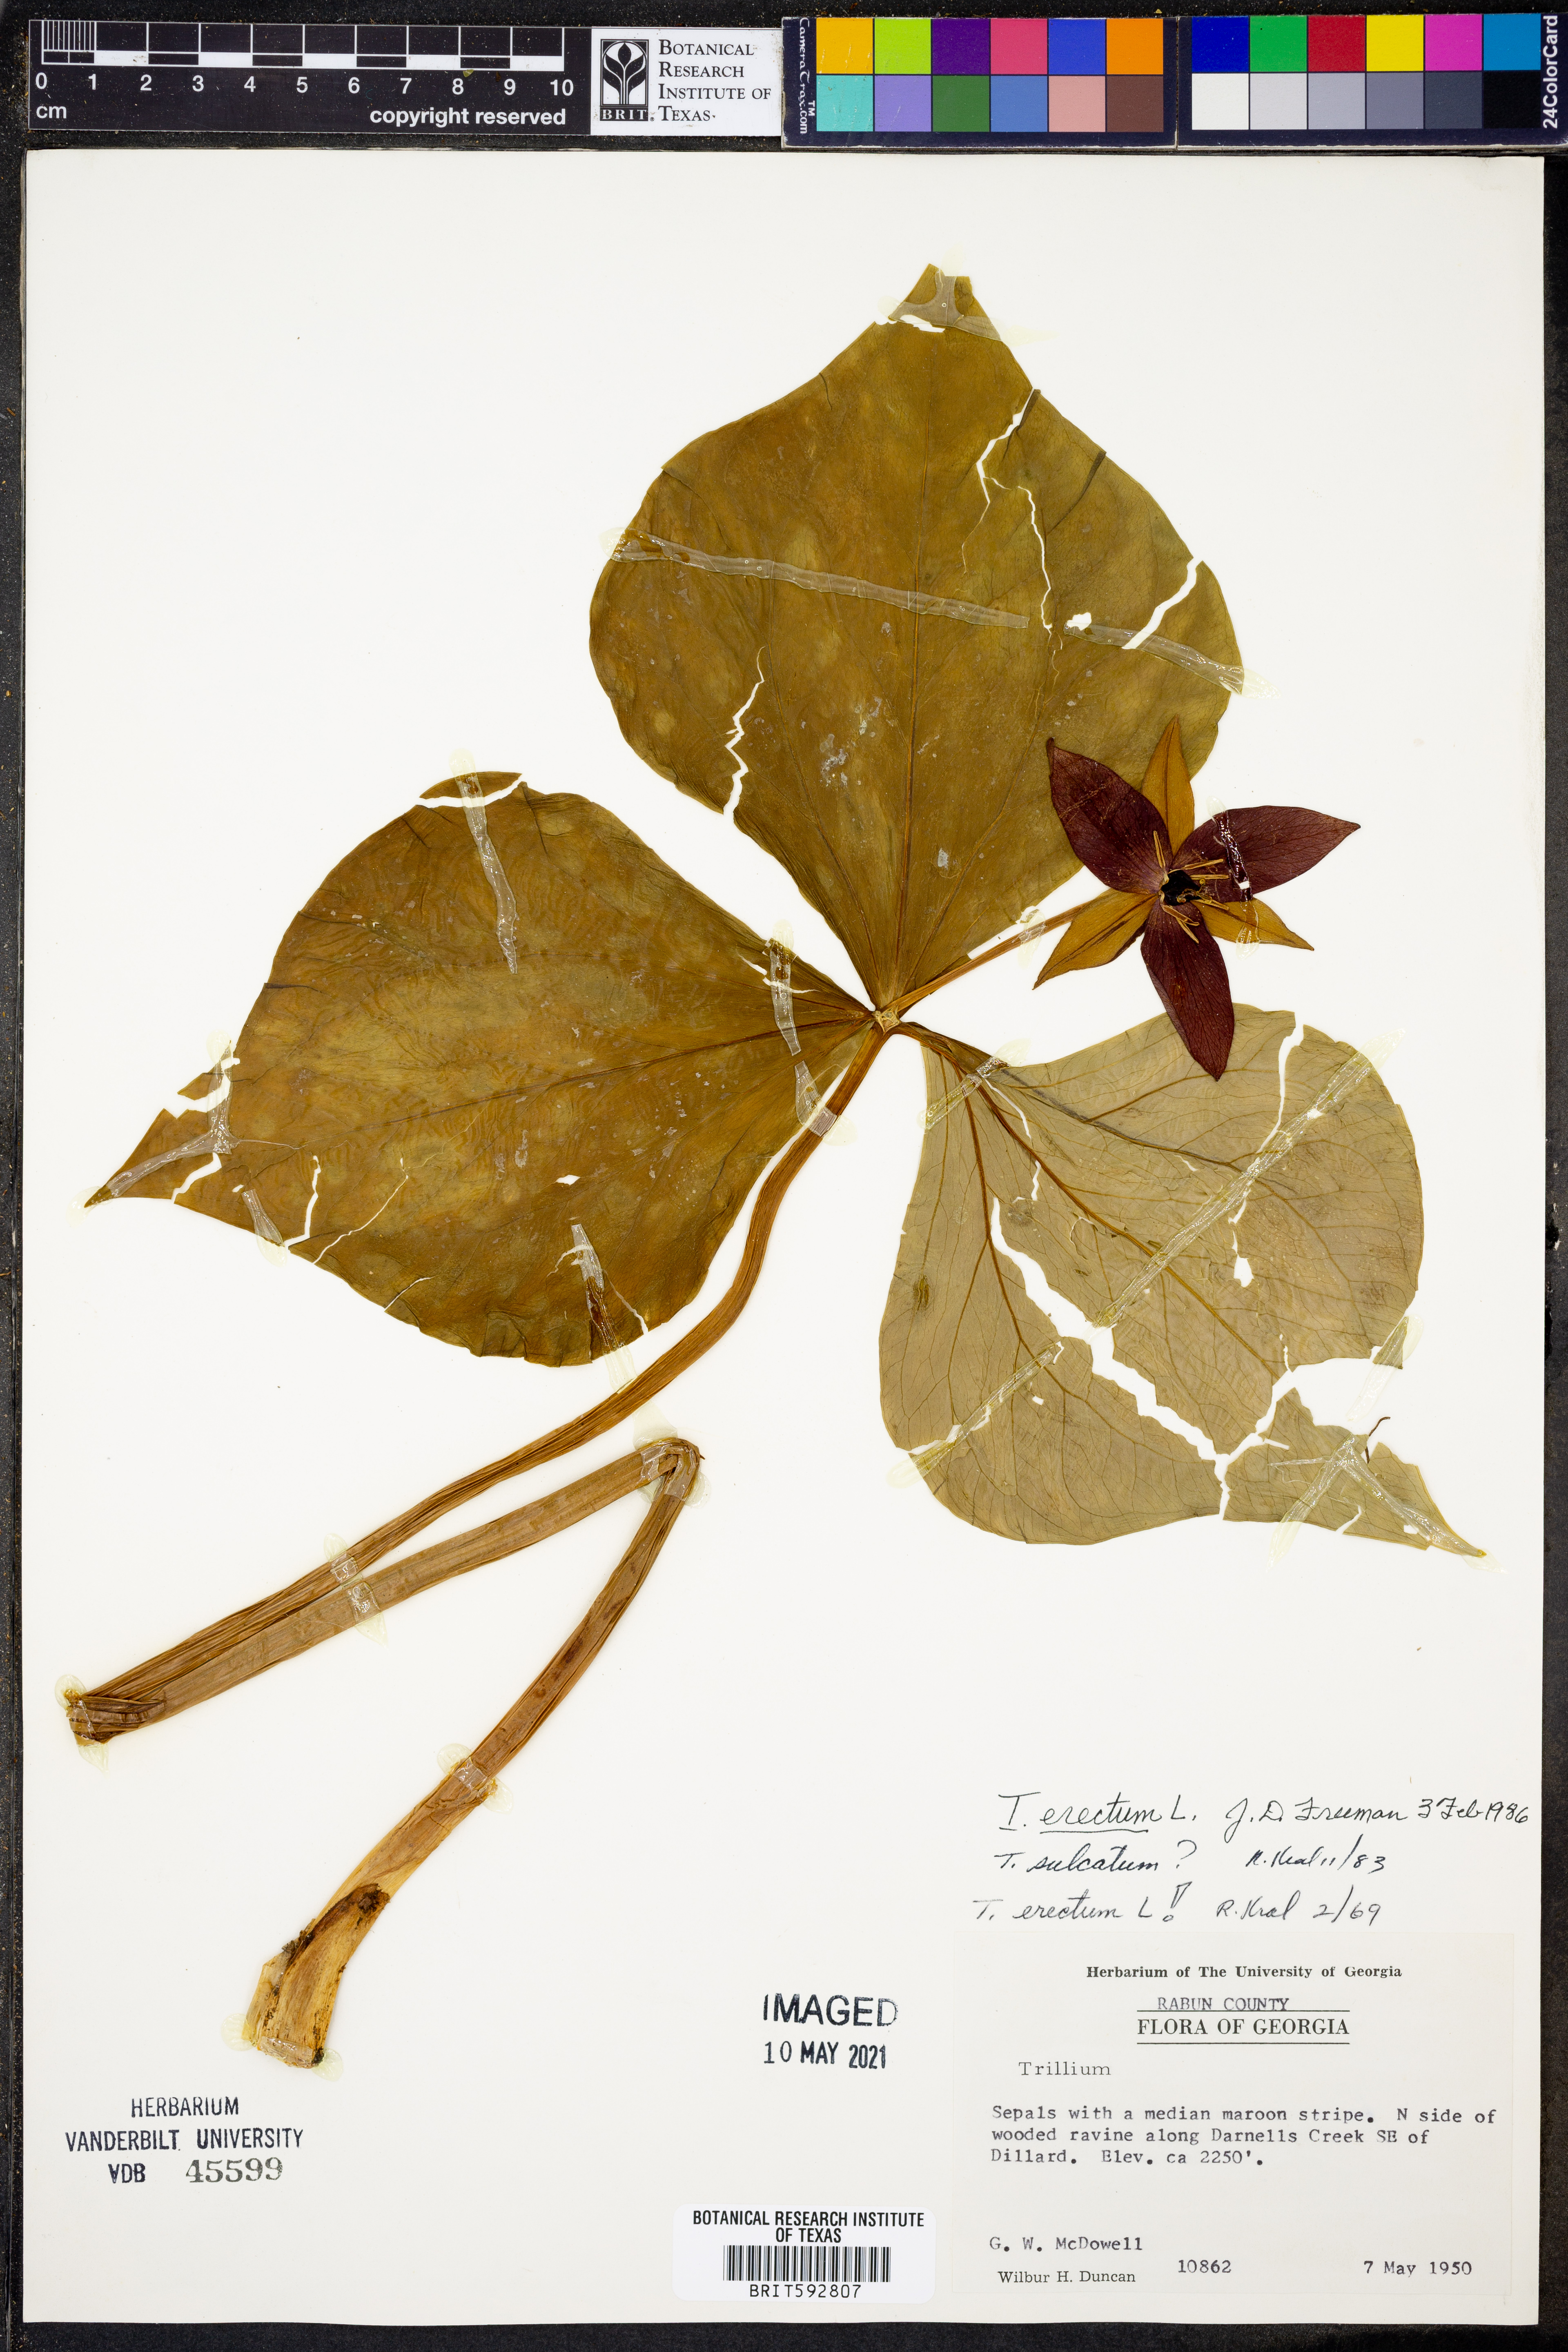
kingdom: Plantae
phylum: Tracheophyta
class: Liliopsida
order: Liliales
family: Melanthiaceae
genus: Trillium
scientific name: Trillium erectum
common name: Purple trillium
